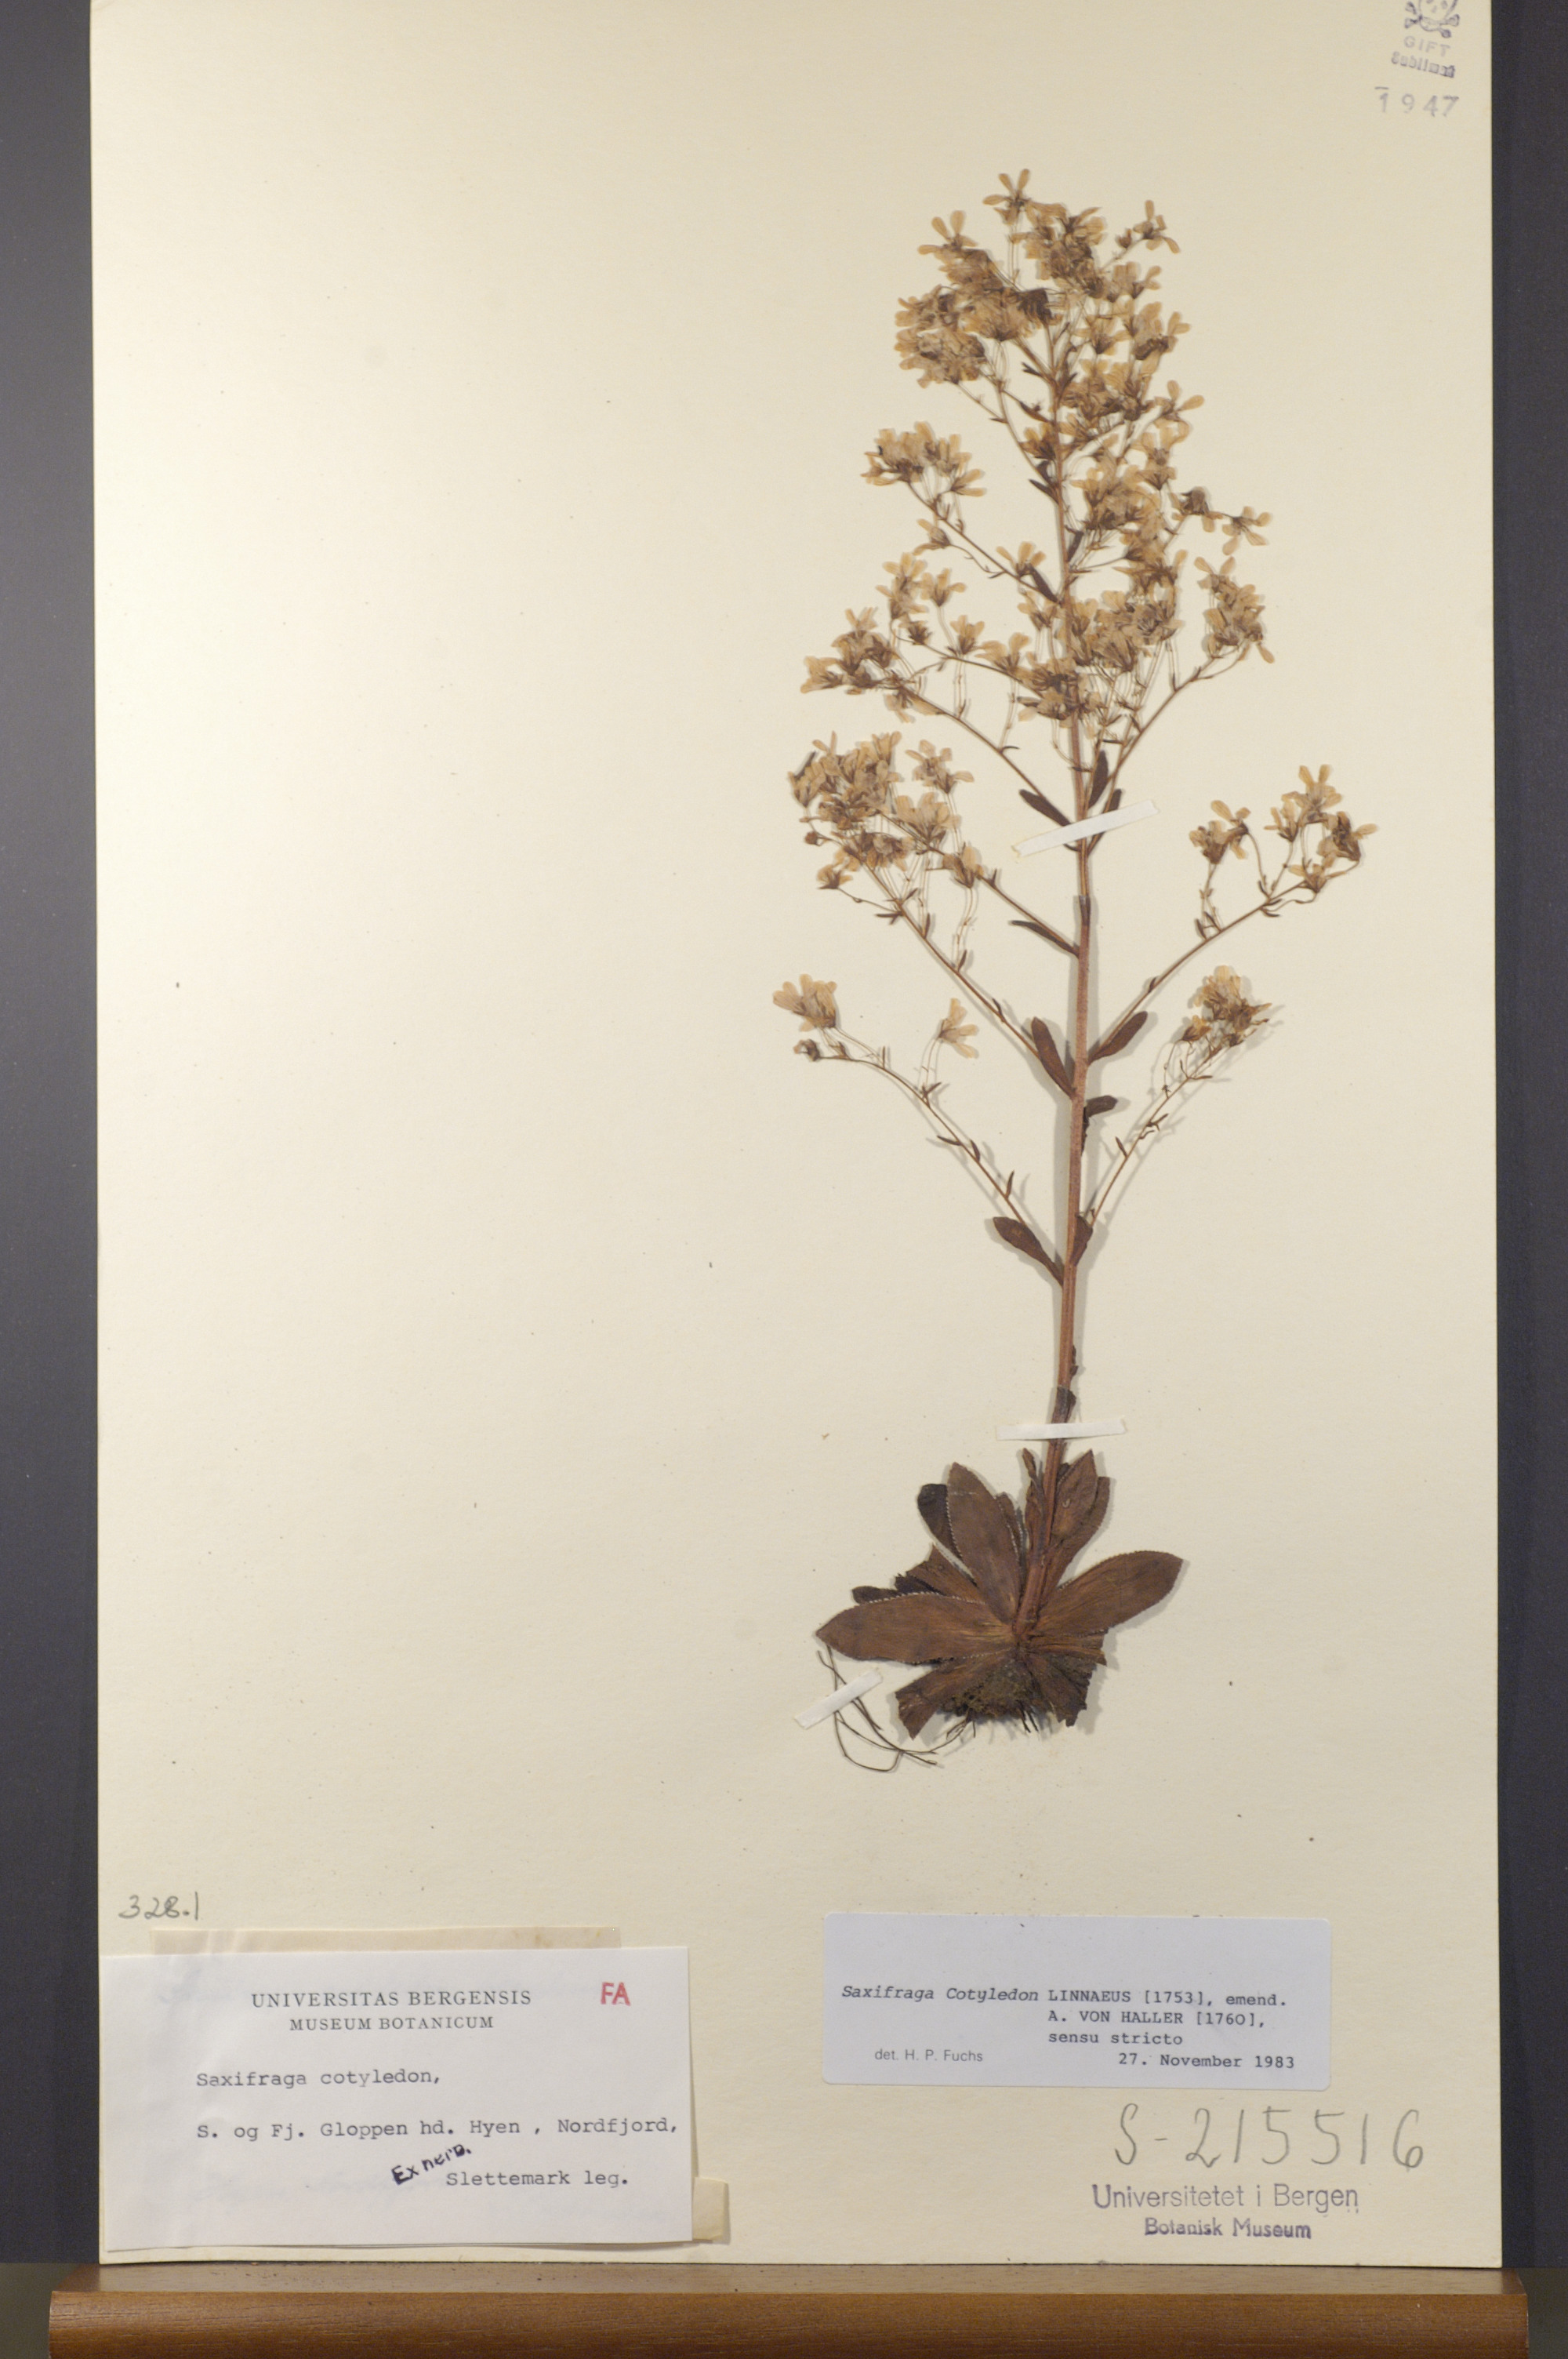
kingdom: Plantae
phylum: Tracheophyta
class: Magnoliopsida
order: Saxifragales
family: Saxifragaceae
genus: Saxifraga
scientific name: Saxifraga cotyledon
